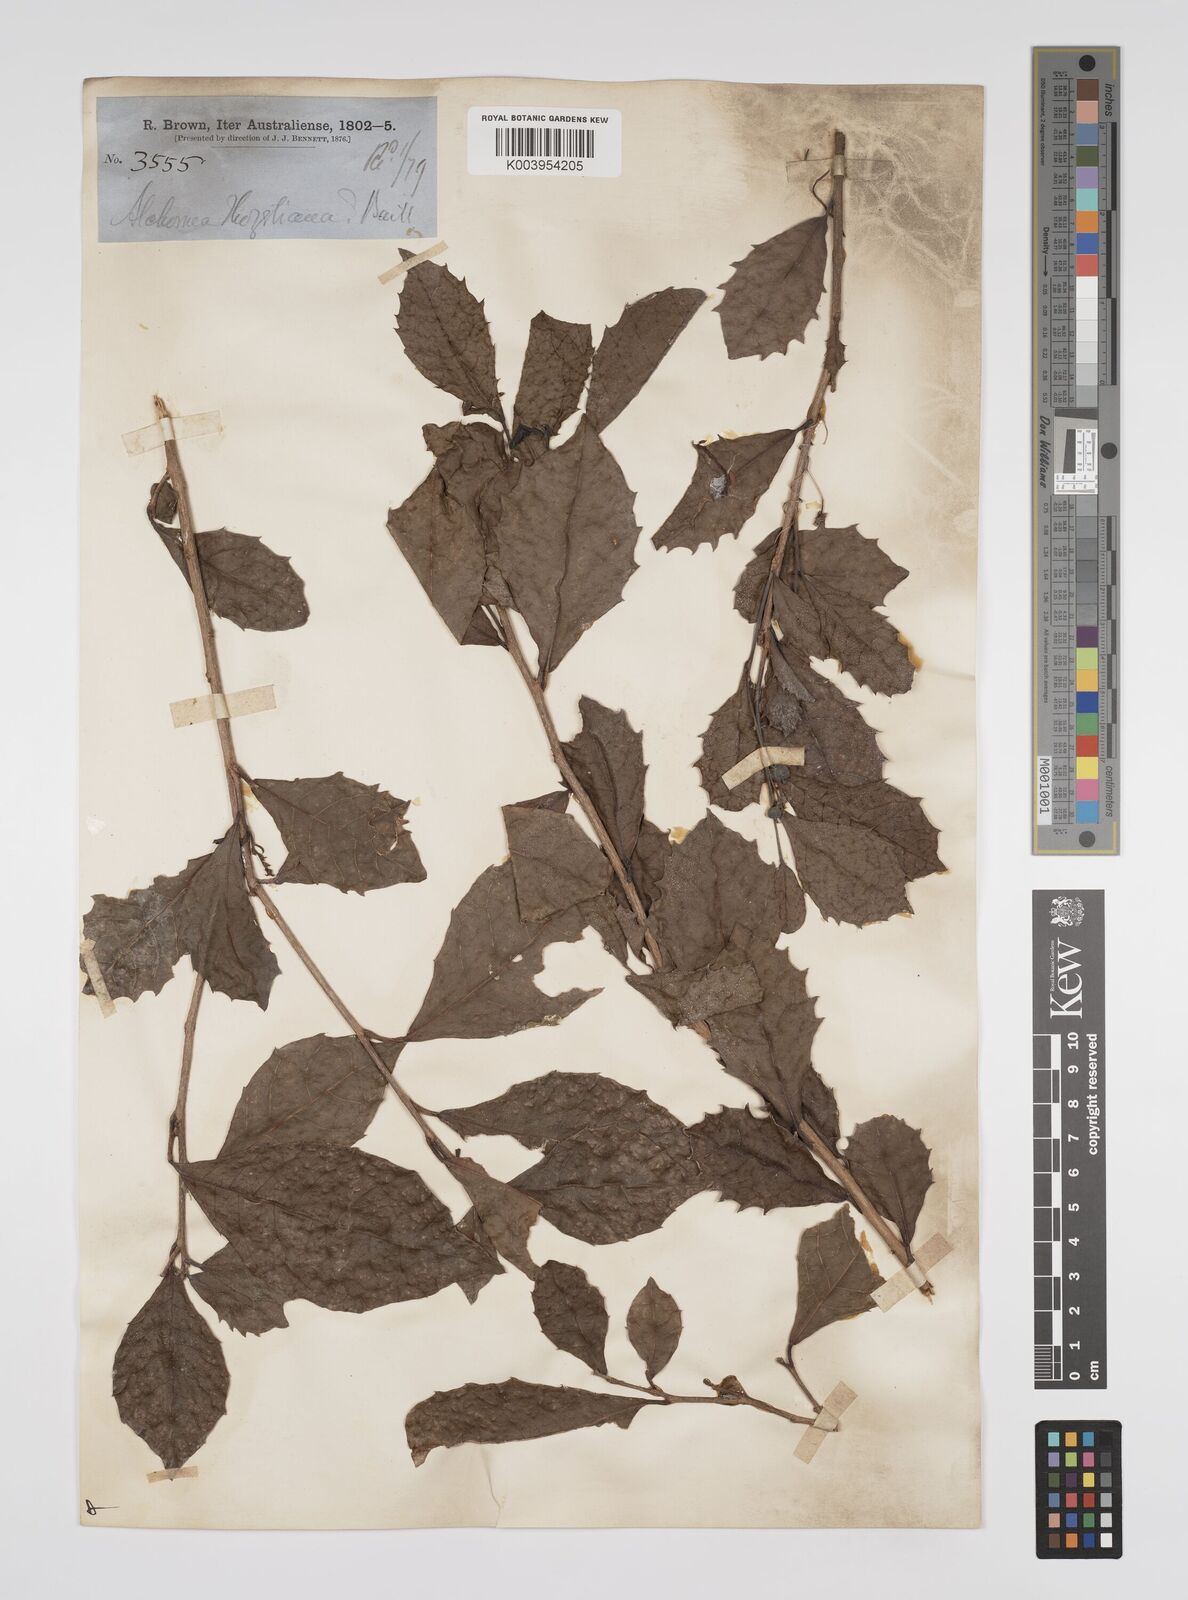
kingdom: Plantae
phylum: Tracheophyta
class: Magnoliopsida
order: Malpighiales
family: Euphorbiaceae
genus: Alchornea
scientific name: Alchornea ilicifolia
